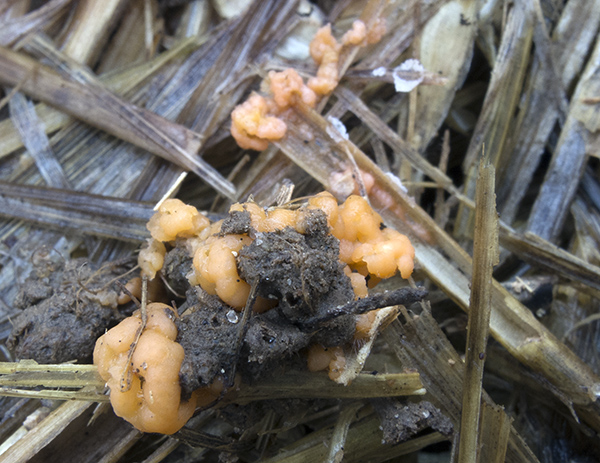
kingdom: Fungi
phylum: Basidiomycota
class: Tremellomycetes
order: Tremellales
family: Rhynchogastremaceae
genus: Tetragoniomyces
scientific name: Tetragoniomyces uliginosus
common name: sklerotie-snyltehjerne
